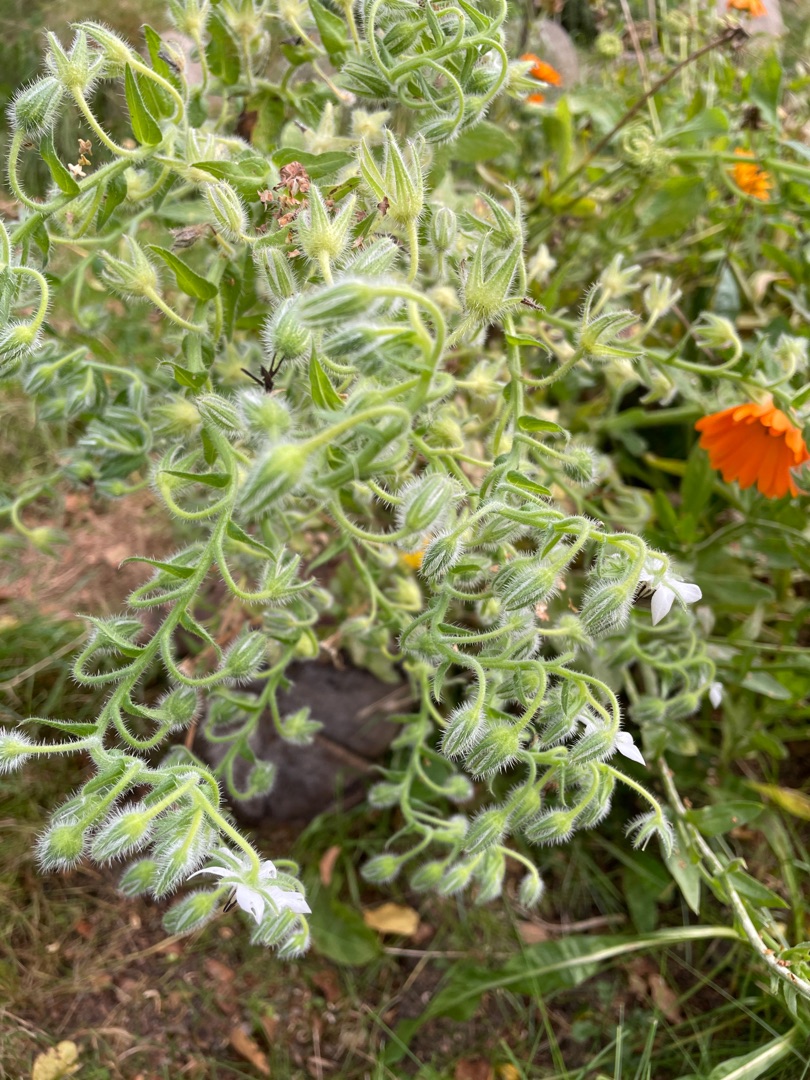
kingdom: Plantae
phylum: Tracheophyta
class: Magnoliopsida
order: Boraginales
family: Boraginaceae
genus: Borago
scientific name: Borago officinalis
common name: Hjulkrone
